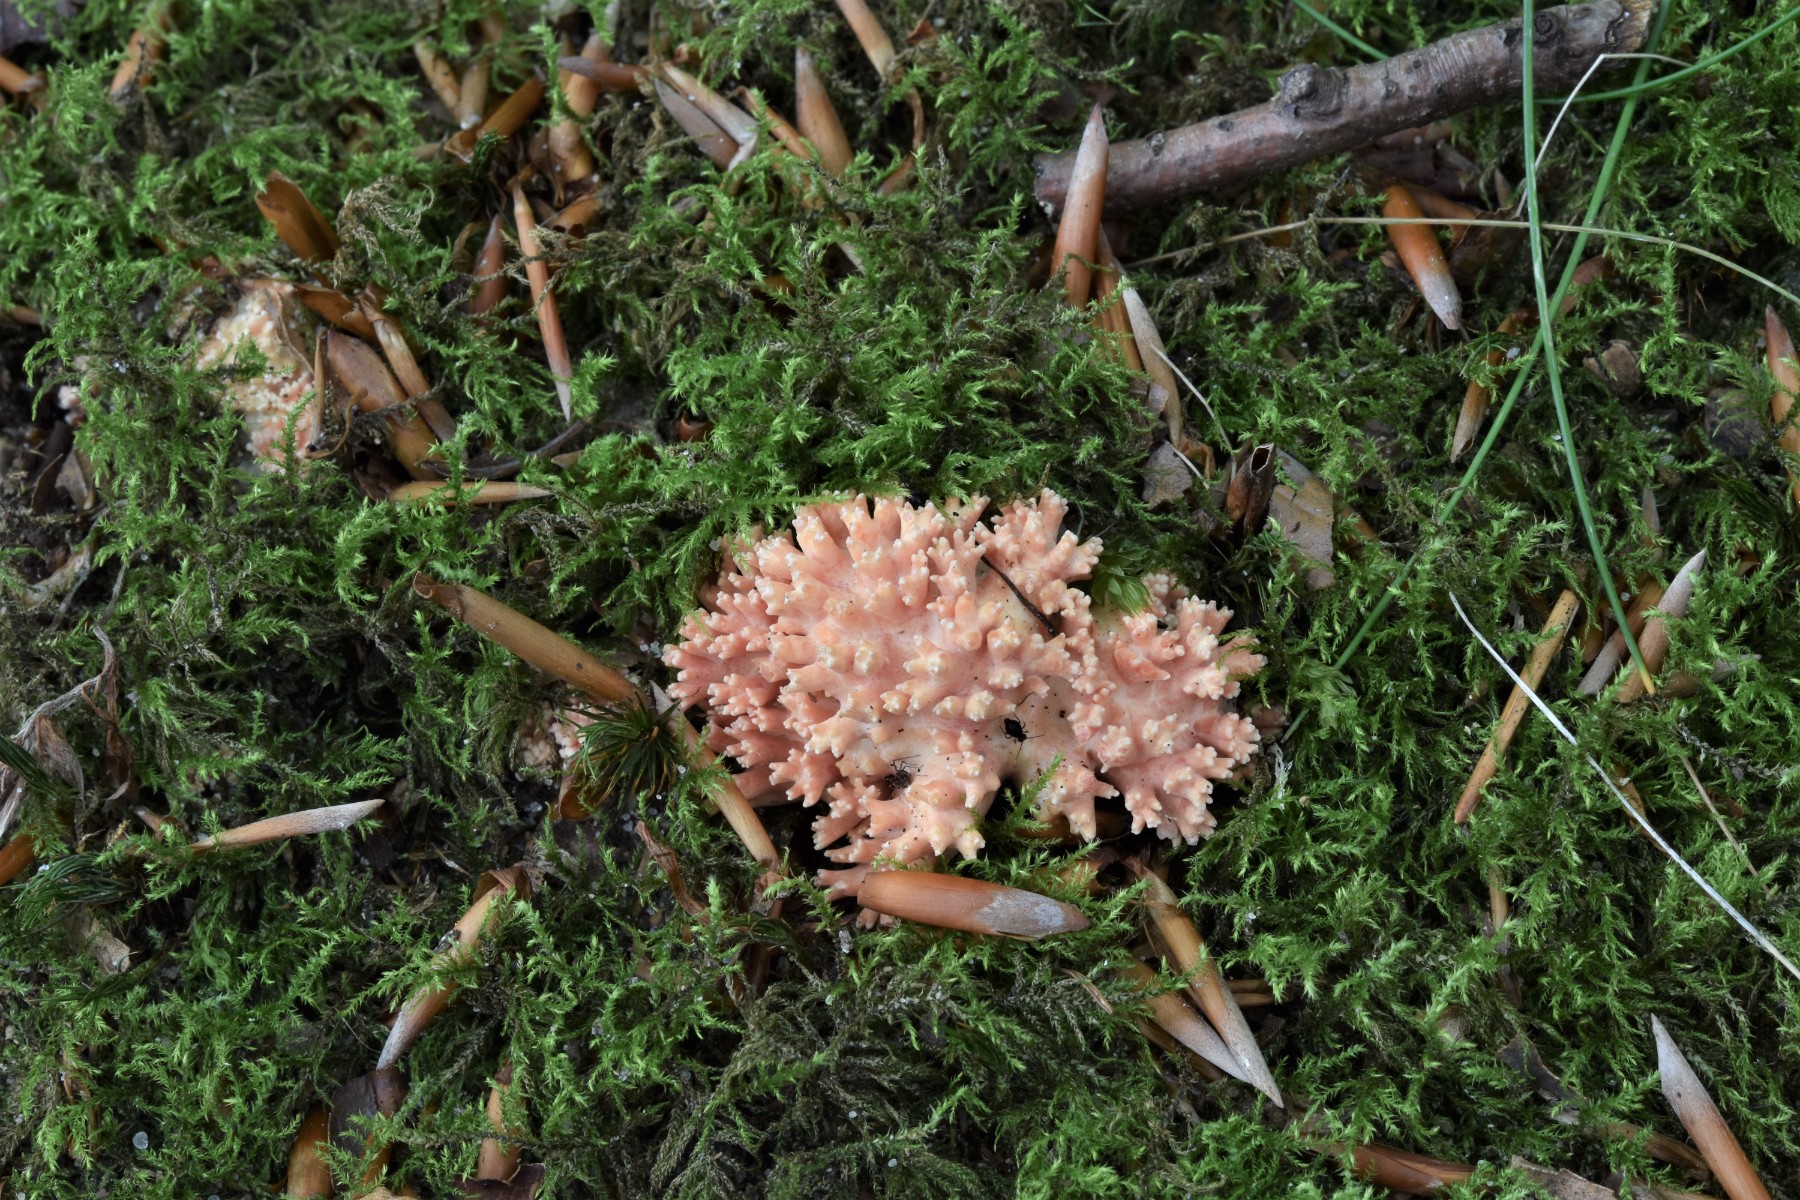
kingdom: Fungi
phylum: Basidiomycota
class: Agaricomycetes
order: Gomphales
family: Gomphaceae
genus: Ramaria
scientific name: Ramaria fagetorum
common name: abrikos-koralsvamp
